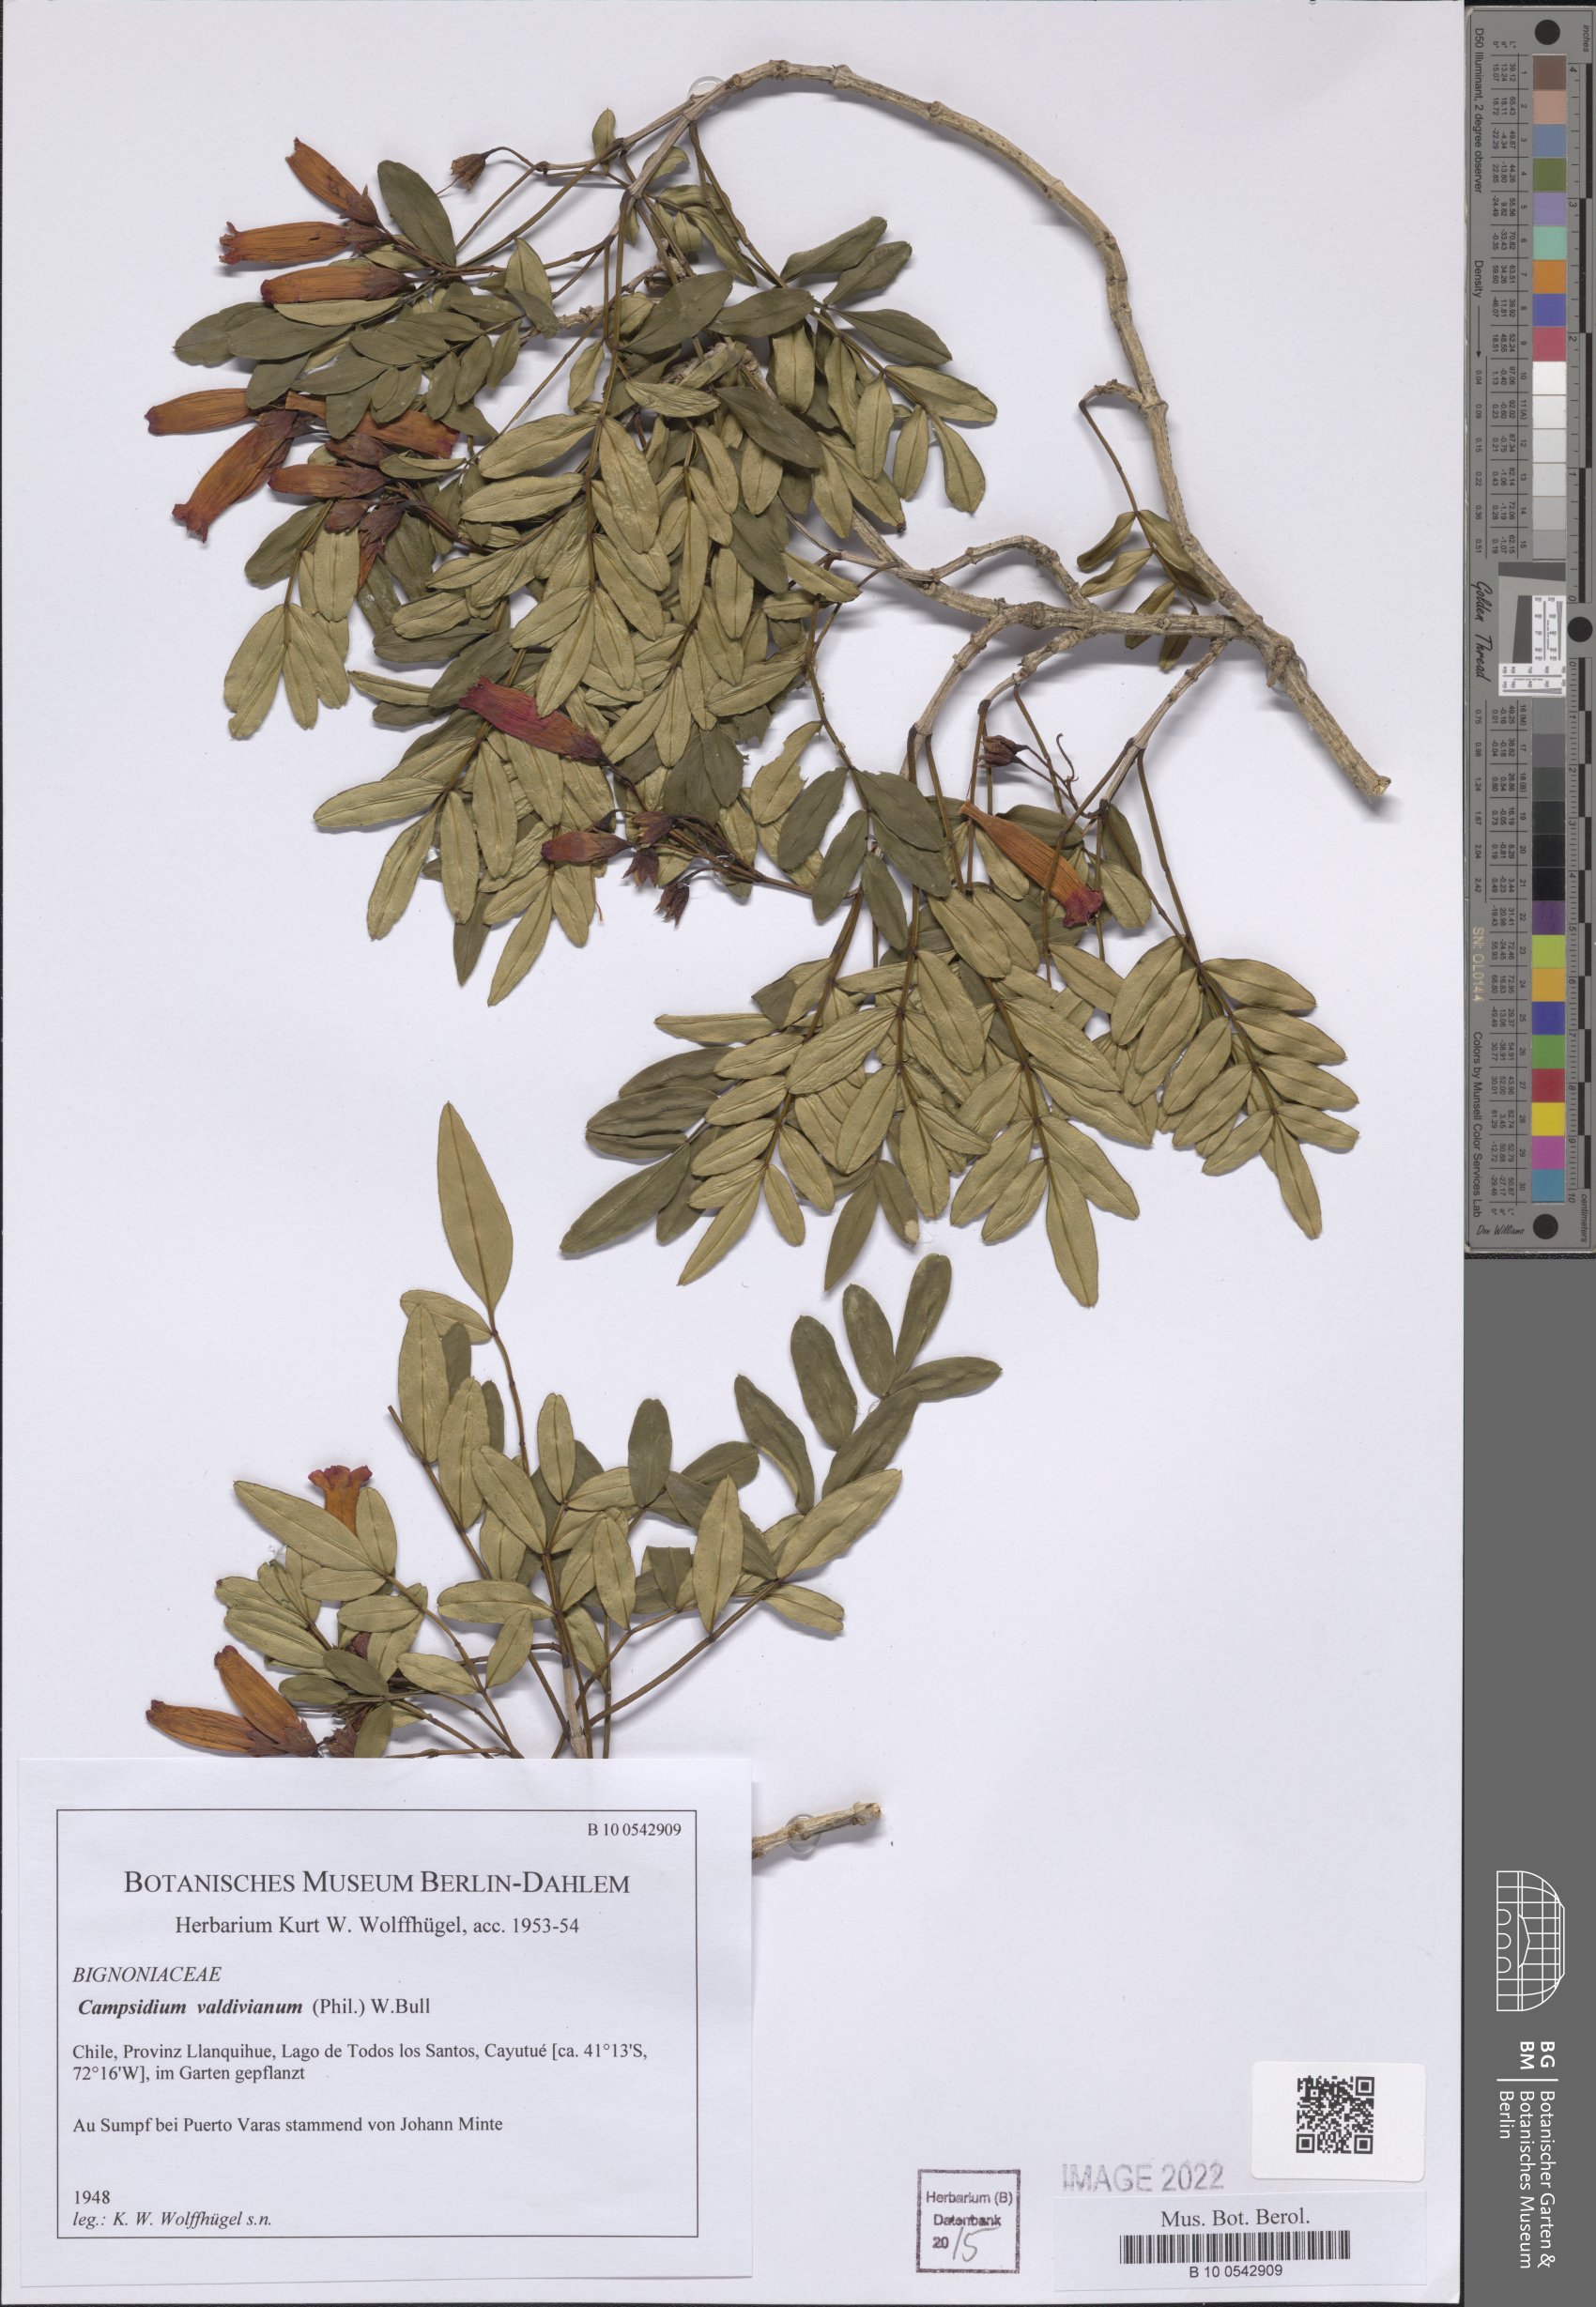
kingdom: Plantae
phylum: Tracheophyta
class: Magnoliopsida
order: Lamiales
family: Bignoniaceae
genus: Campsidium
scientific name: Campsidium valdivianum
